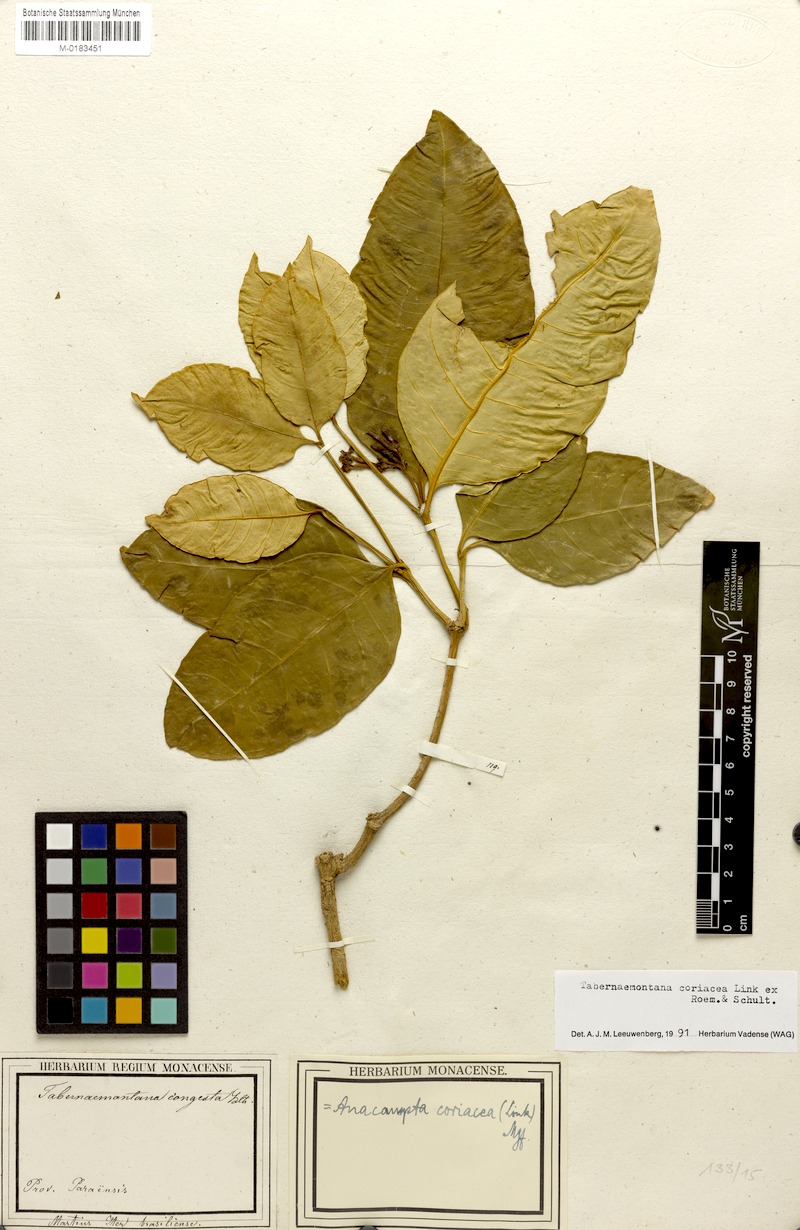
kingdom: Plantae
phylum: Tracheophyta
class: Magnoliopsida
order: Gentianales
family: Apocynaceae
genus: Tabernaemontana
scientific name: Tabernaemontana coriacea
